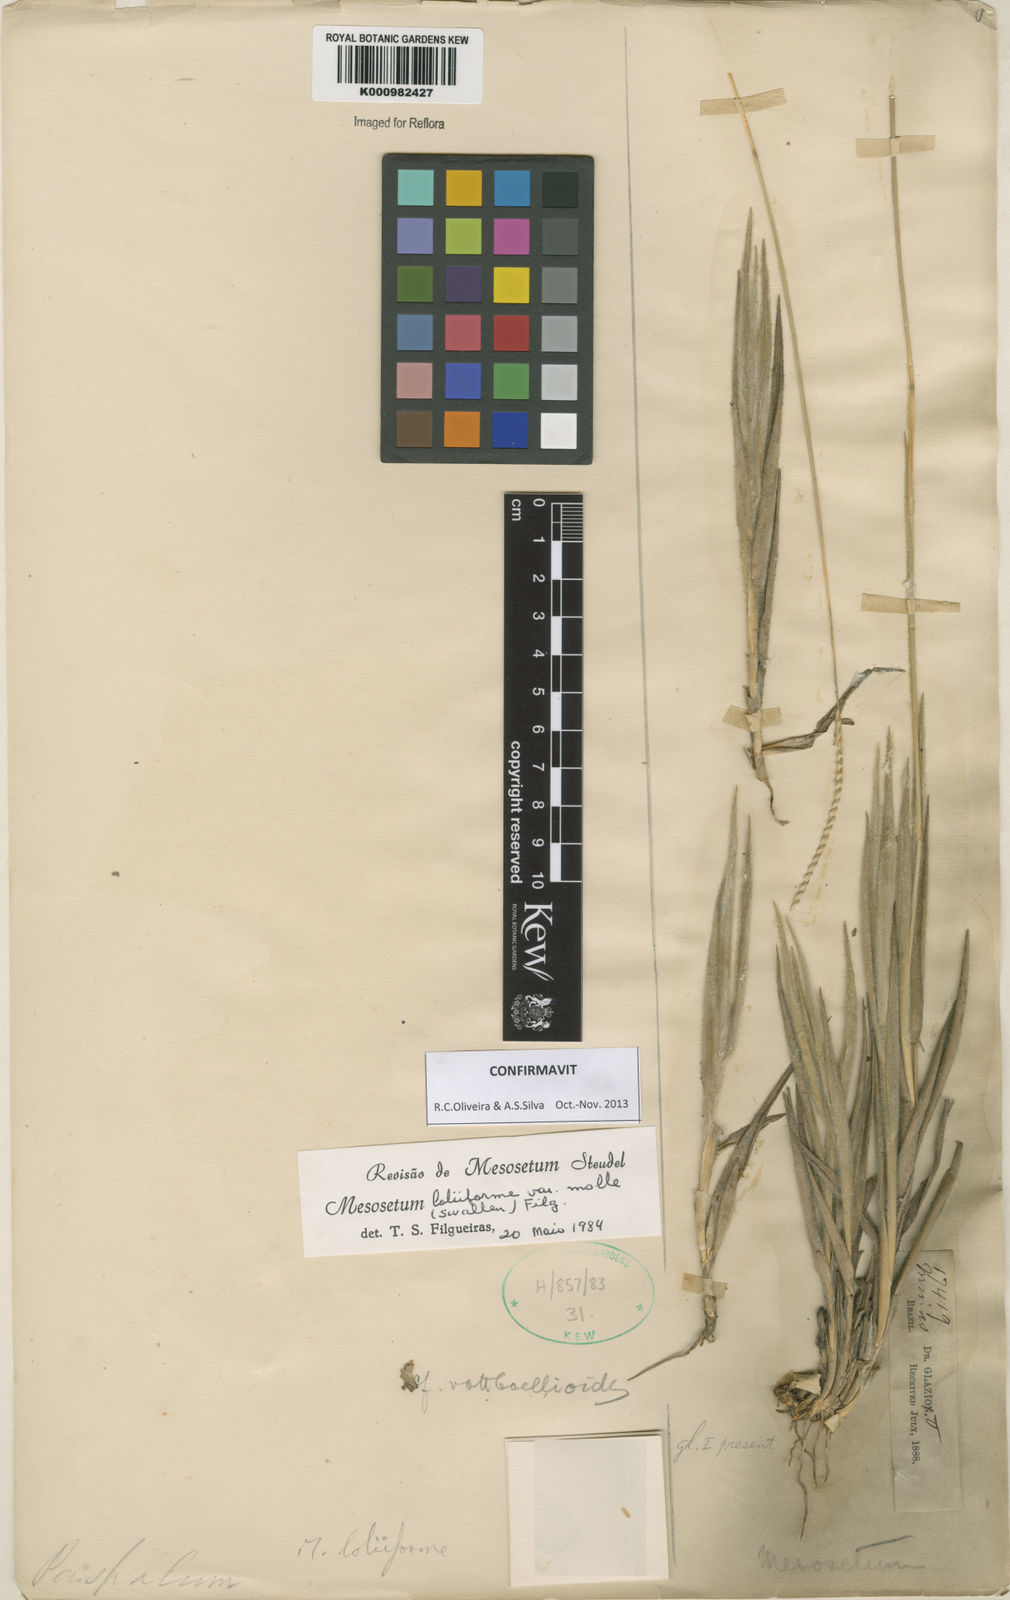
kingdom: Plantae
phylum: Tracheophyta
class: Liliopsida
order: Poales
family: Poaceae
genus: Mesosetum
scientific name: Mesosetum
